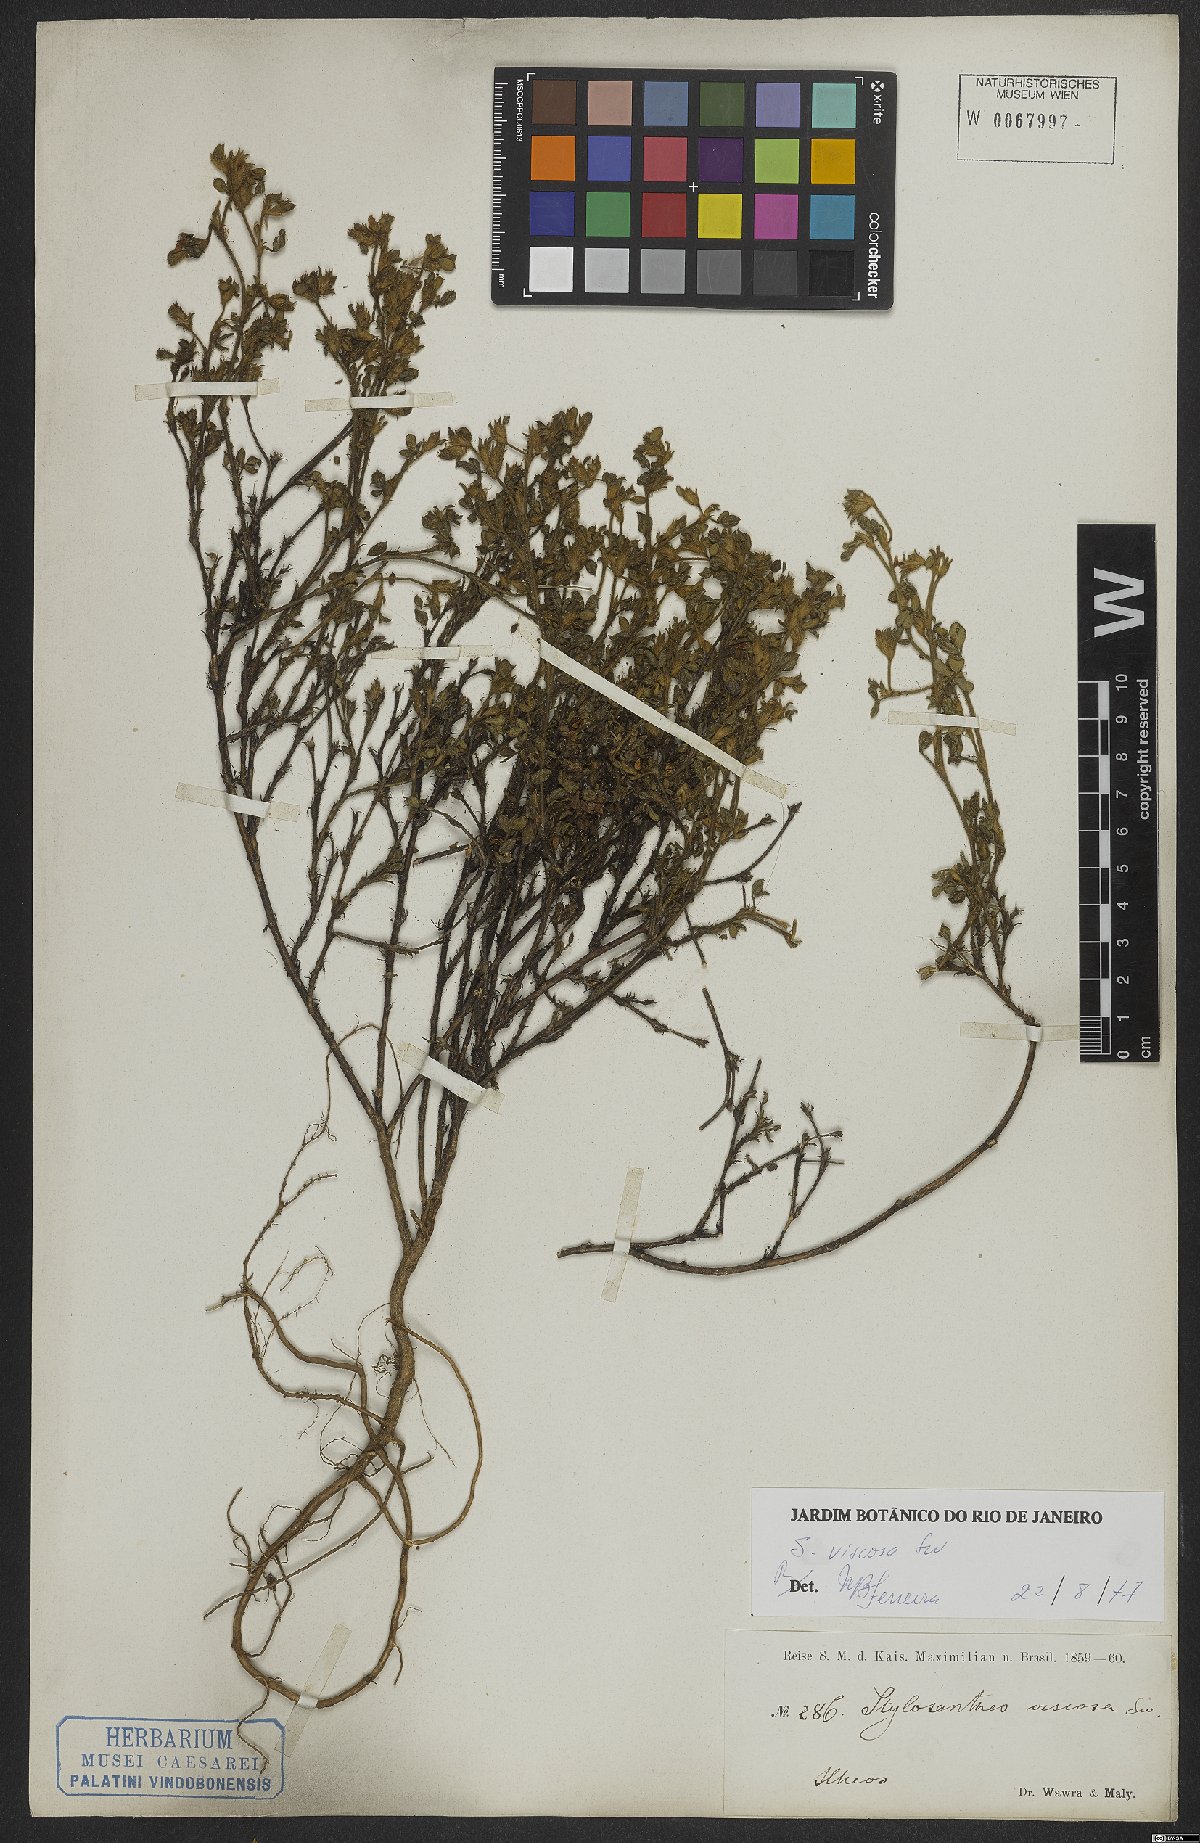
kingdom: Plantae
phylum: Tracheophyta
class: Magnoliopsida
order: Fabales
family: Fabaceae
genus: Stylosanthes
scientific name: Stylosanthes viscosa
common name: Viscid pencil-flower
